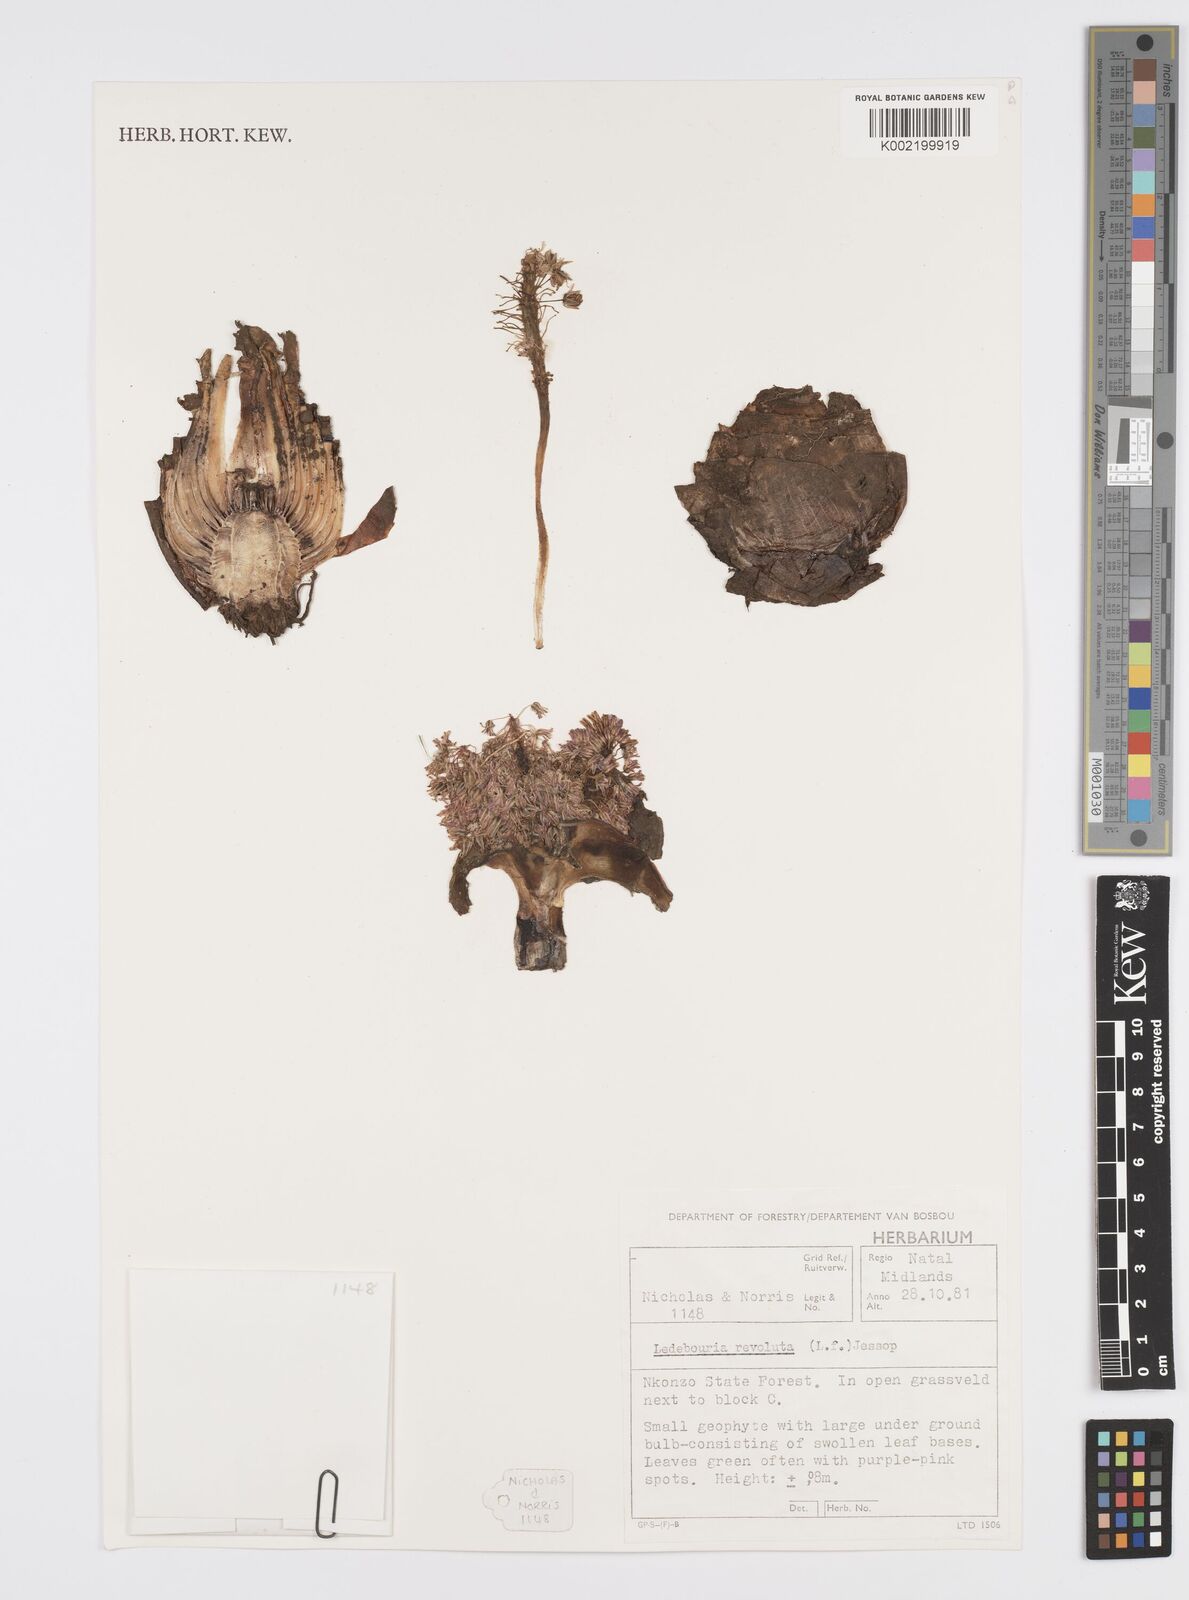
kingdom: Plantae
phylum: Tracheophyta
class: Liliopsida
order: Asparagales
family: Asparagaceae
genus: Ledebouria
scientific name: Ledebouria revoluta
